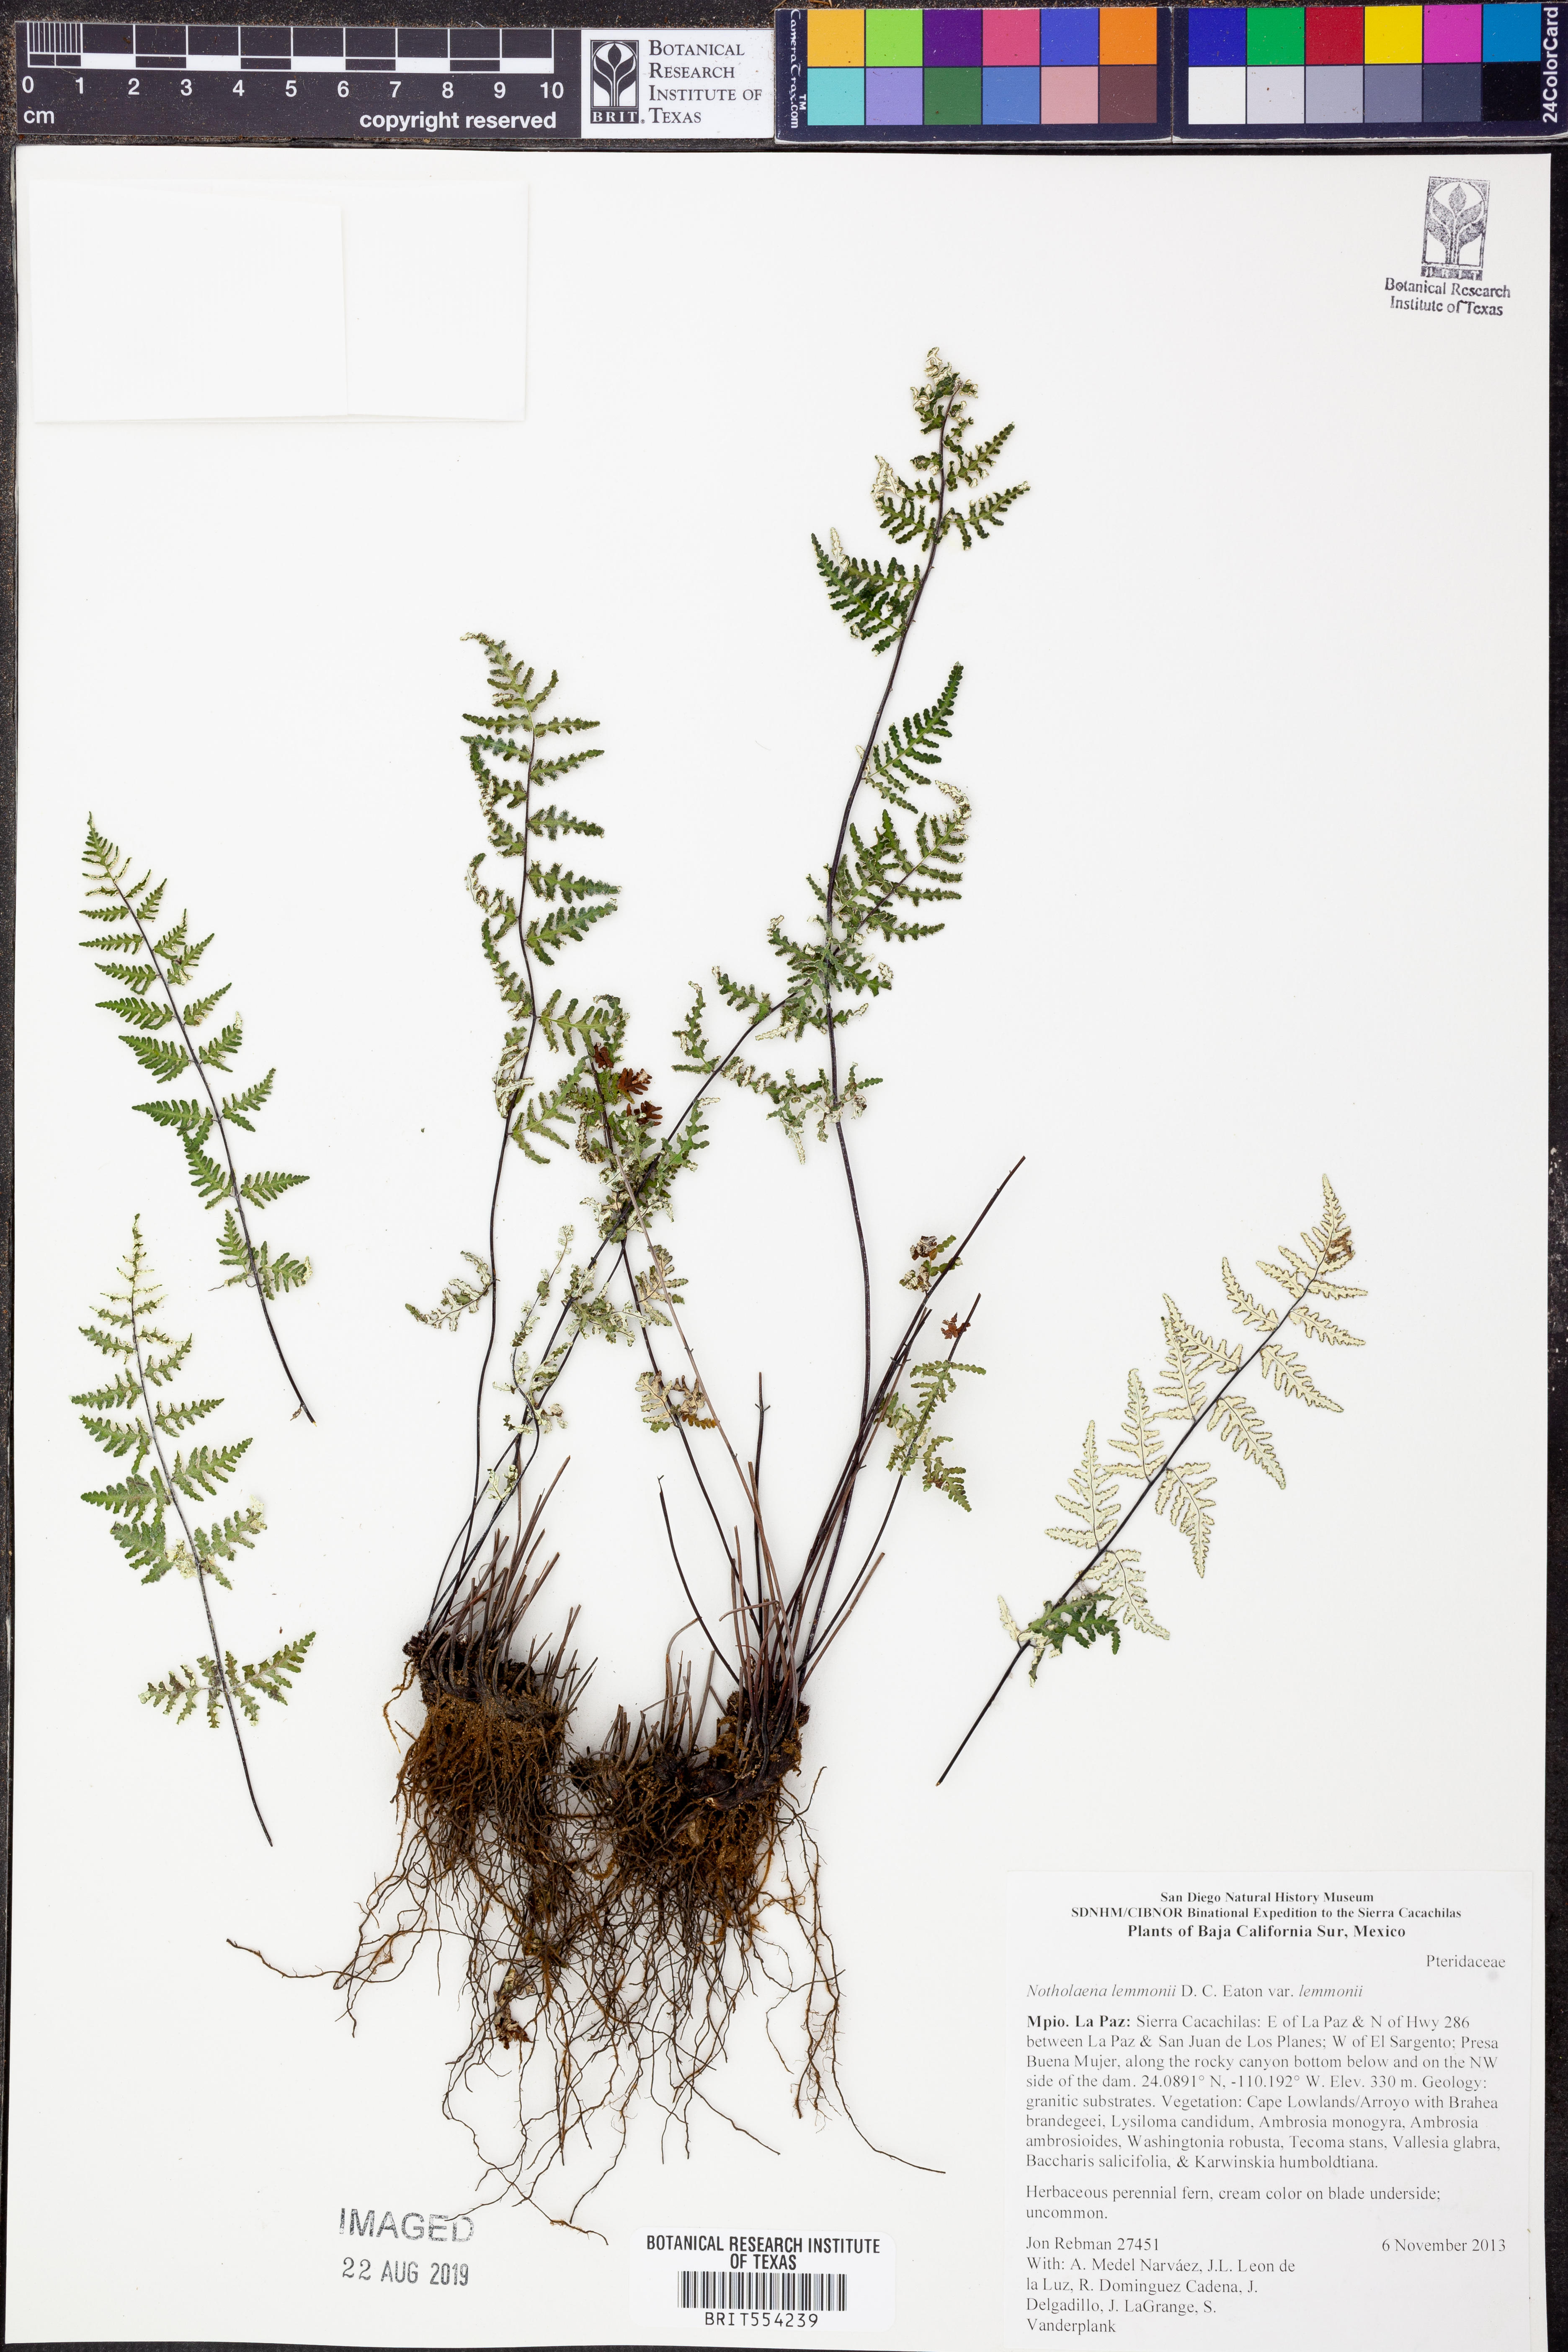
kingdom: Plantae
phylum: Tracheophyta
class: Polypodiopsida
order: Polypodiales
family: Pteridaceae
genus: Notholaena
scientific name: Notholaena lemmonii
